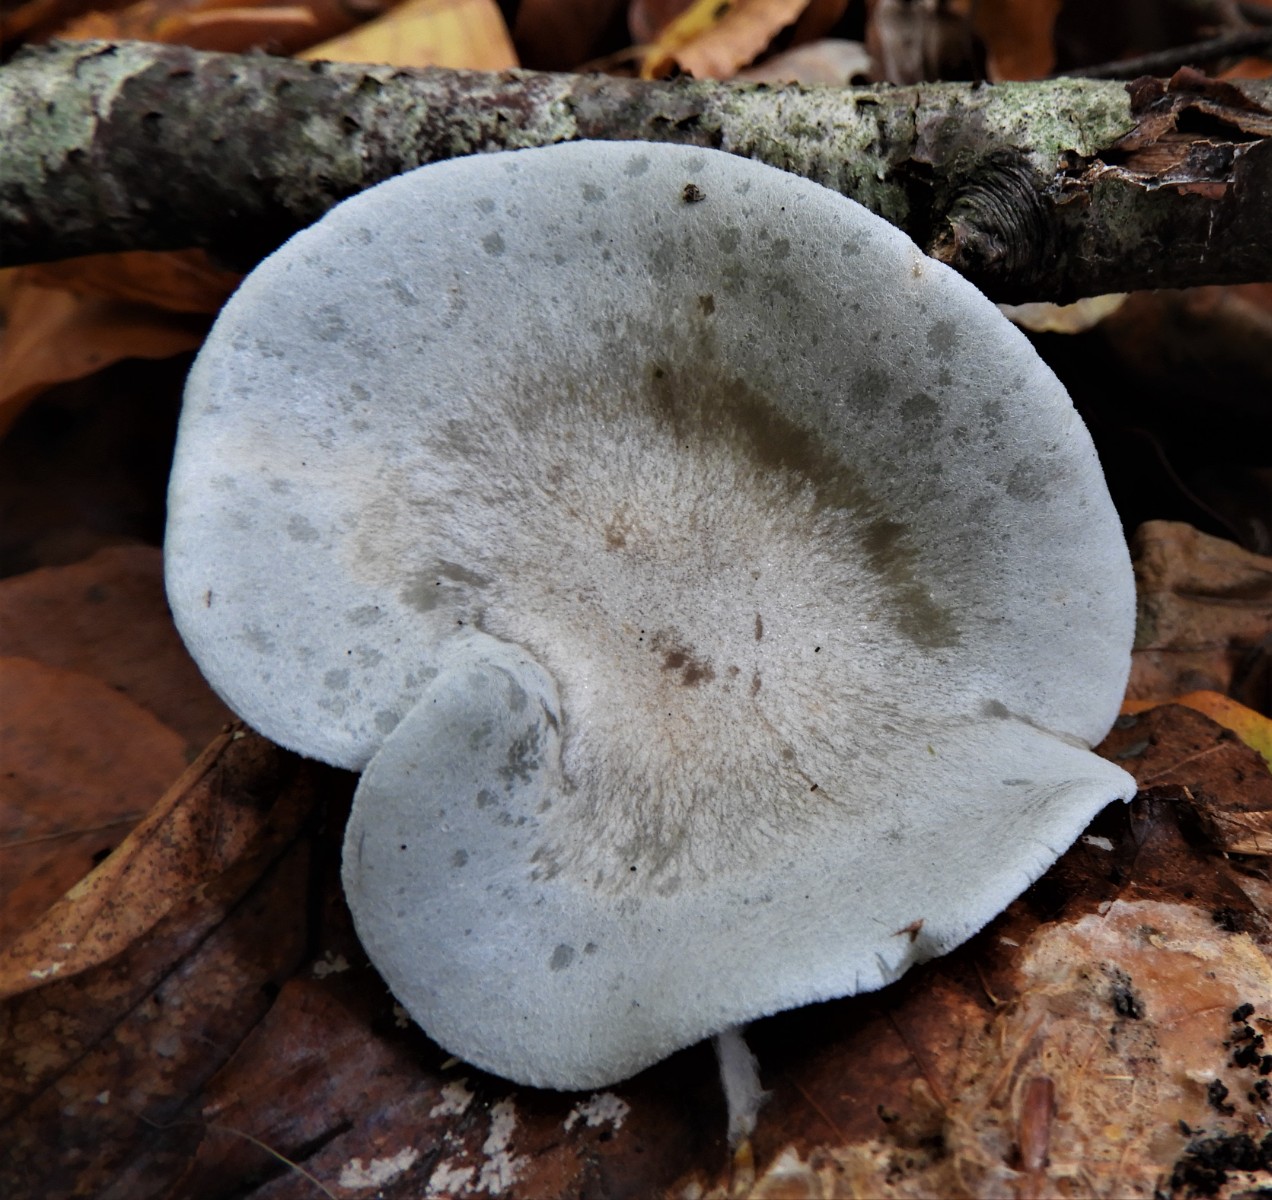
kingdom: Fungi
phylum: Basidiomycota
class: Agaricomycetes
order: Agaricales
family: Tricholomataceae
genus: Clitocybe
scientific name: Clitocybe odora
